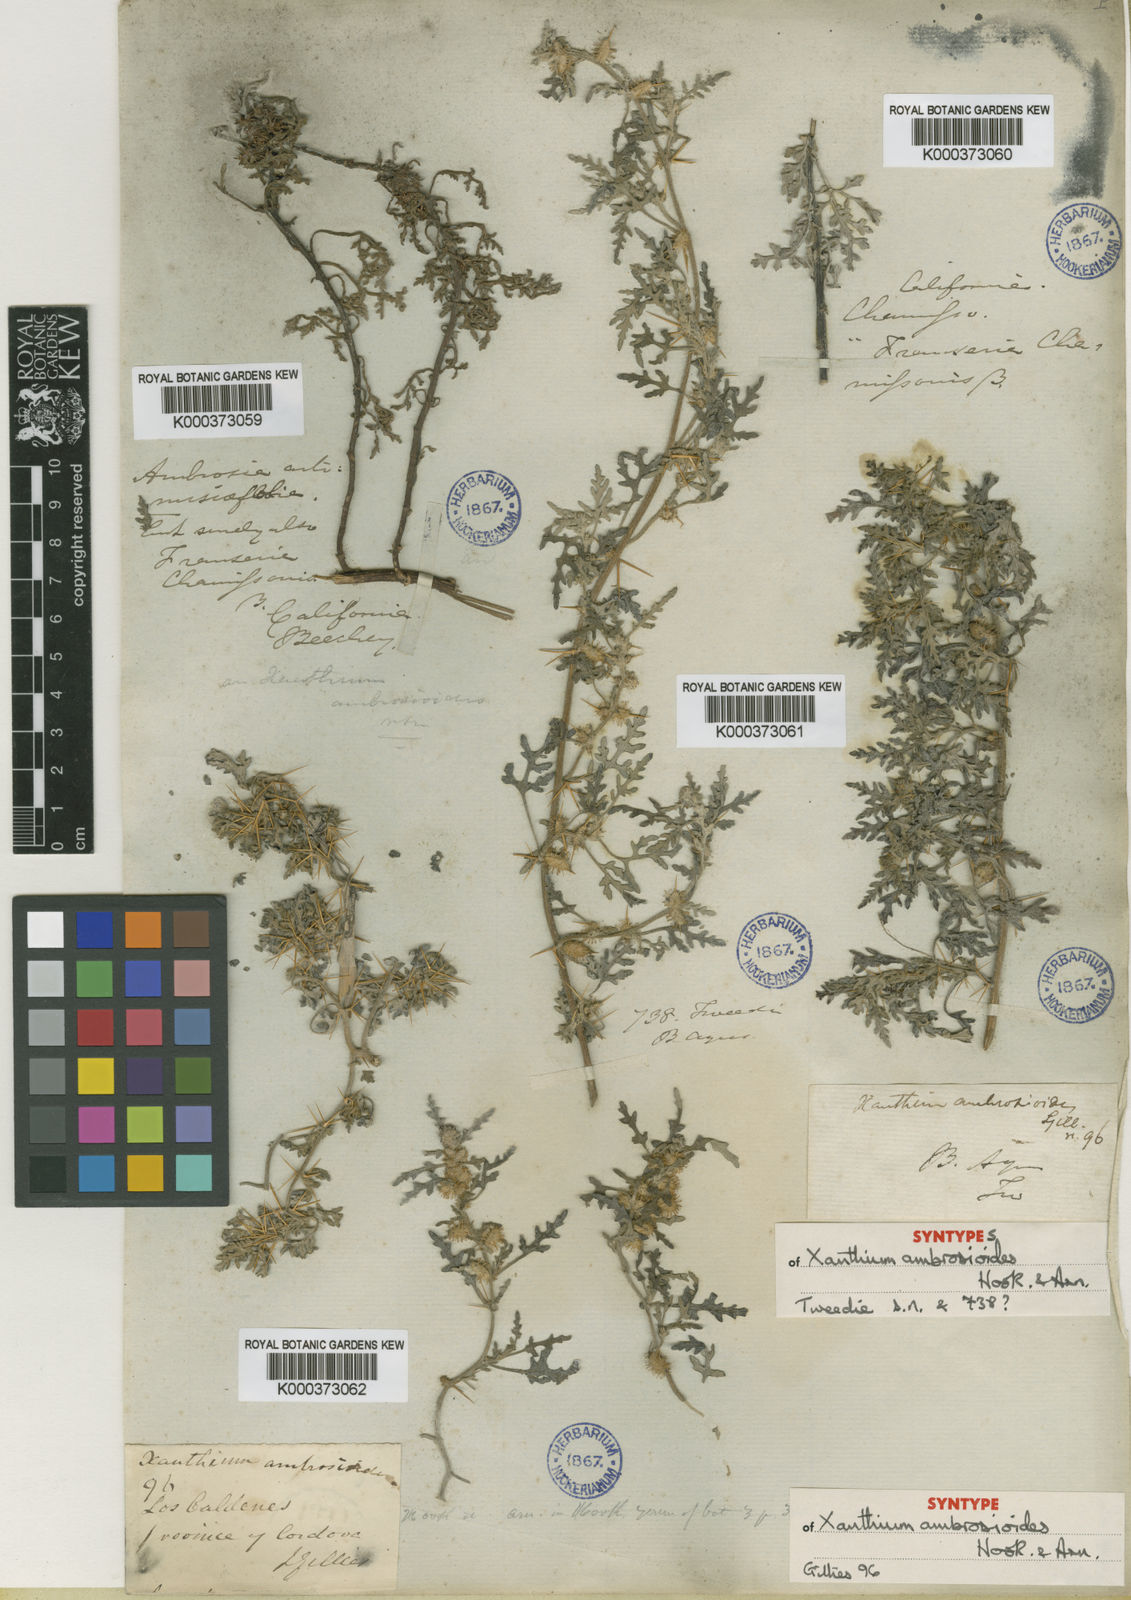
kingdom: Plantae
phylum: Tracheophyta
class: Magnoliopsida
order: Asterales
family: Asteraceae
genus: Xanthium
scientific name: Xanthium spinosum
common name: Spiny cocklebur
